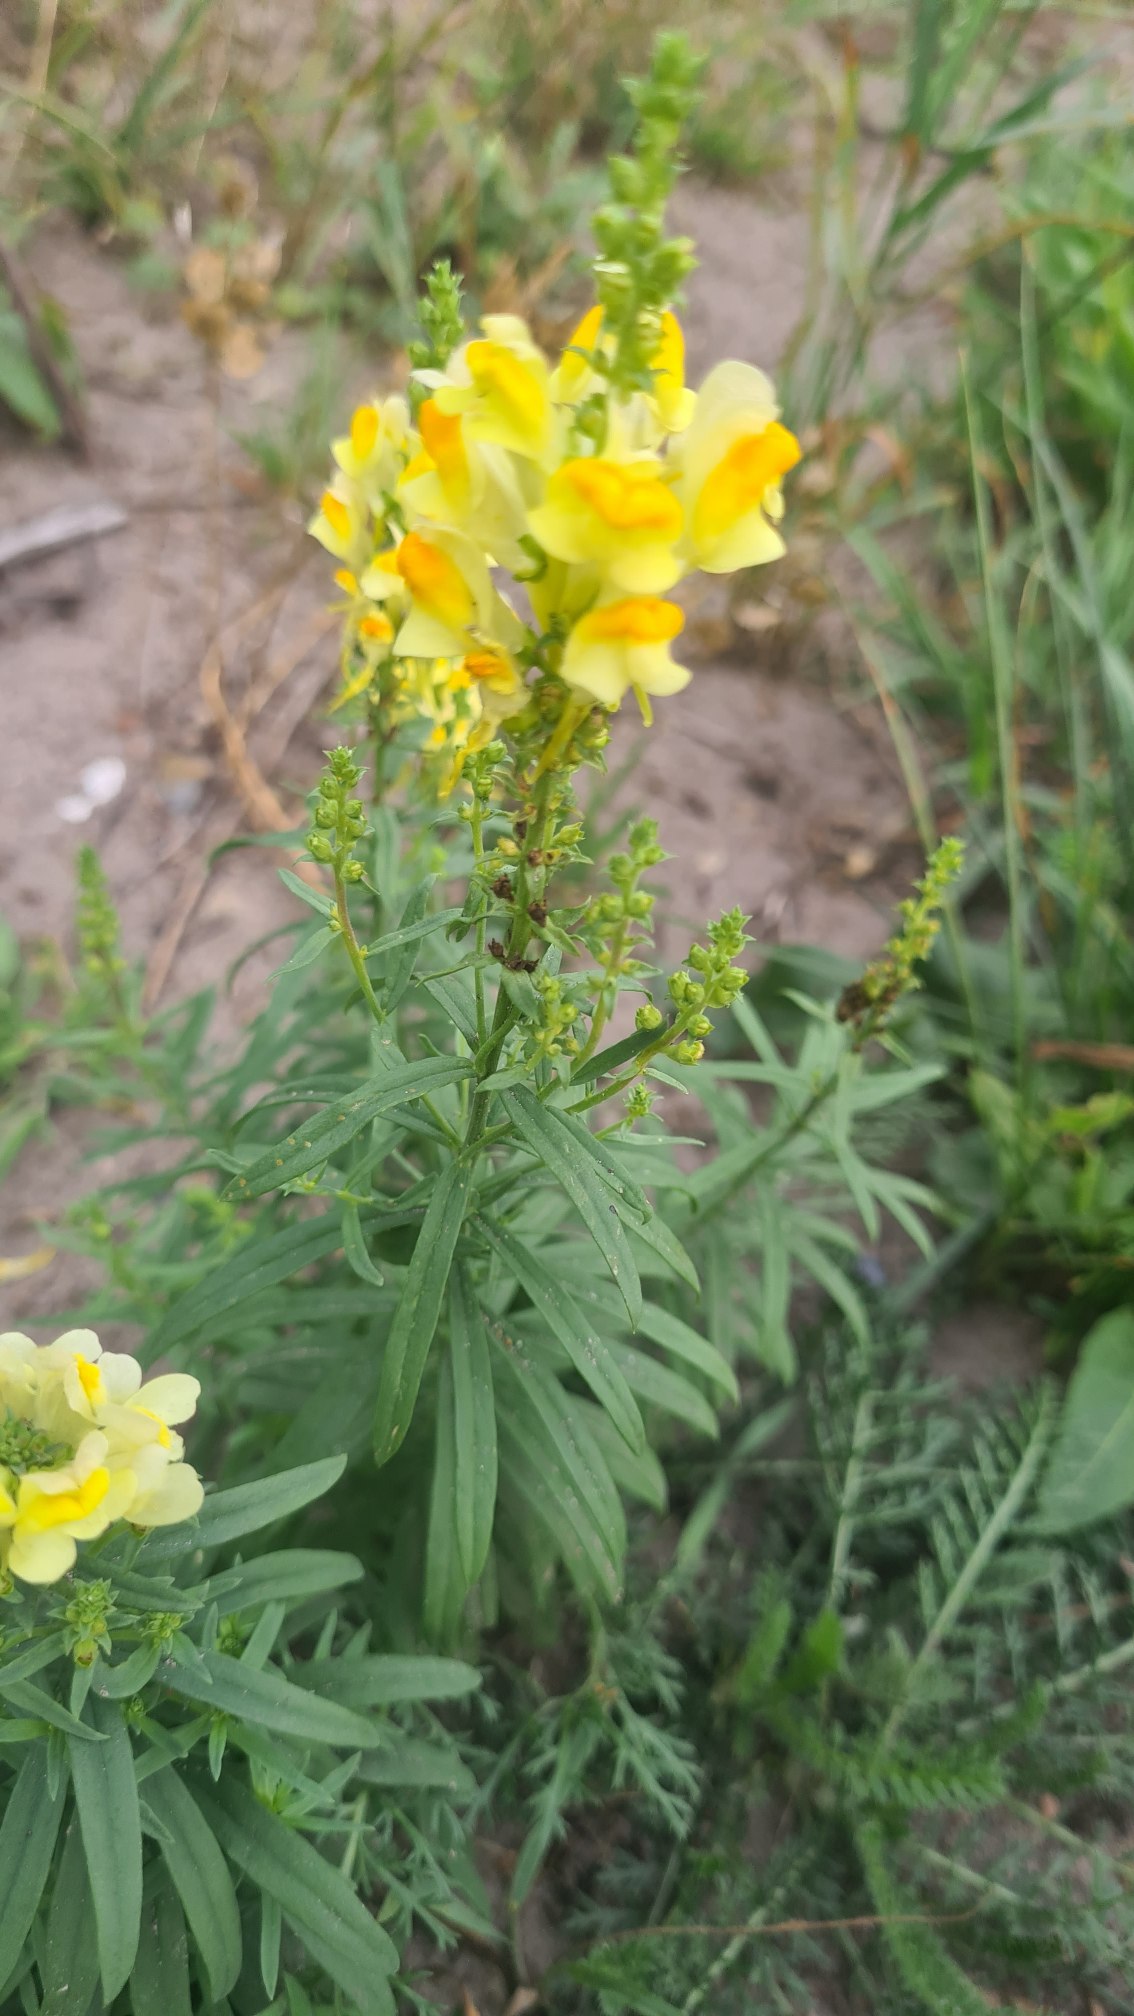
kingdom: Plantae
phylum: Tracheophyta
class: Magnoliopsida
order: Lamiales
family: Plantaginaceae
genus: Linaria
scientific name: Linaria vulgaris
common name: Almindelig torskemund
